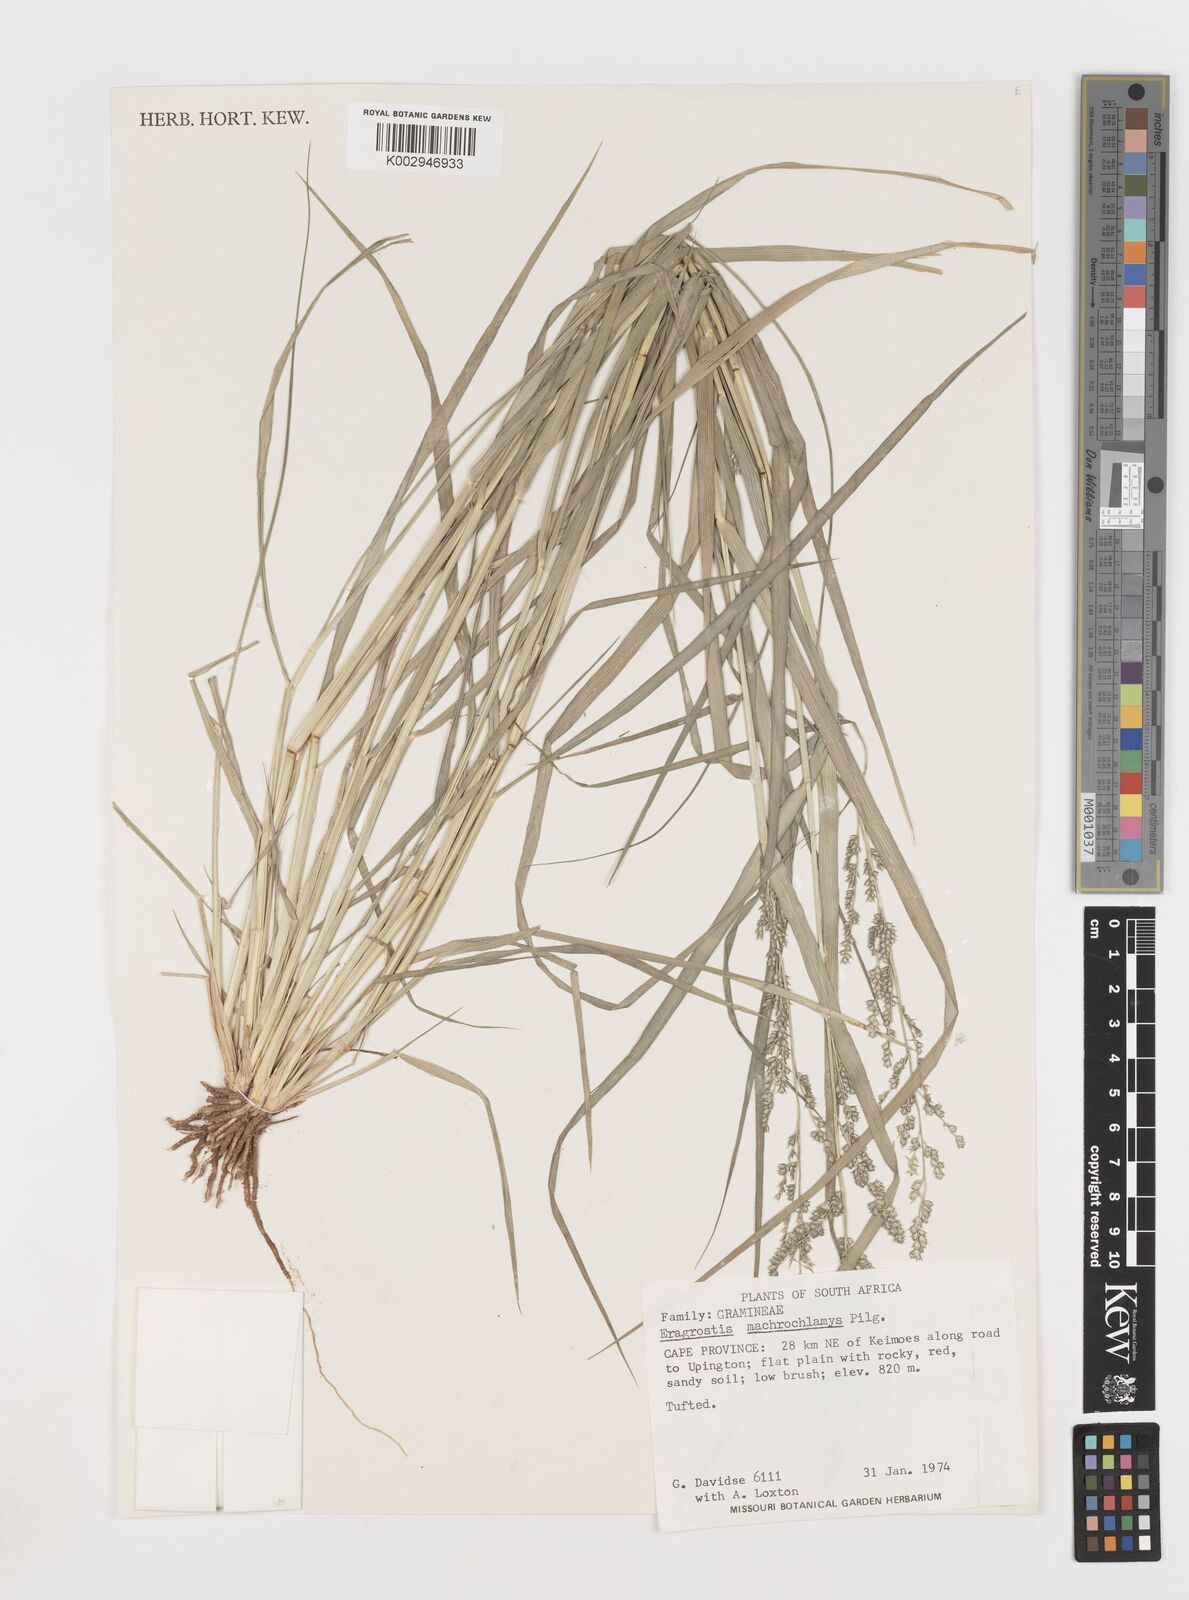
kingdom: Plantae
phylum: Tracheophyta
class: Liliopsida
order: Poales
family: Poaceae
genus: Eragrostis
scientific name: Eragrostis macrochlamys
